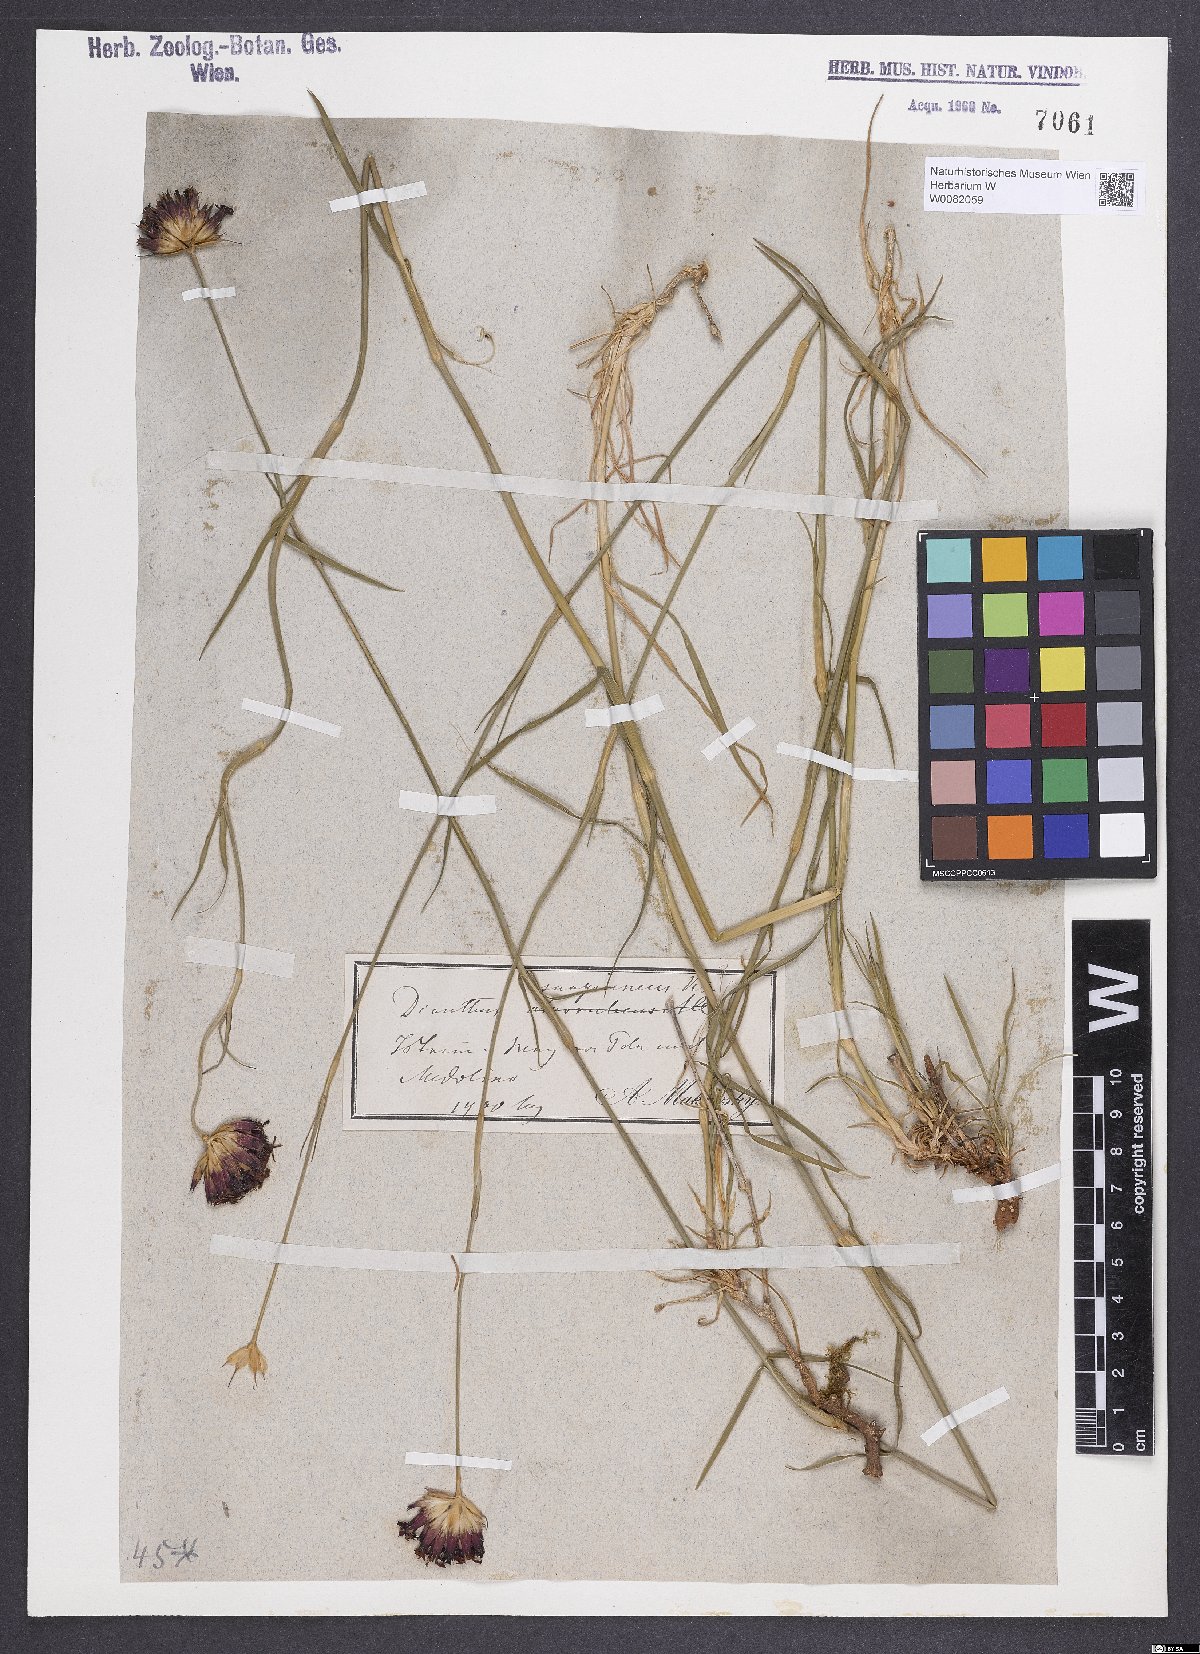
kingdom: Plantae
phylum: Tracheophyta
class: Magnoliopsida
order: Caryophyllales
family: Caryophyllaceae
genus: Dianthus
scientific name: Dianthus carthusianorum
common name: Carthusian pink
